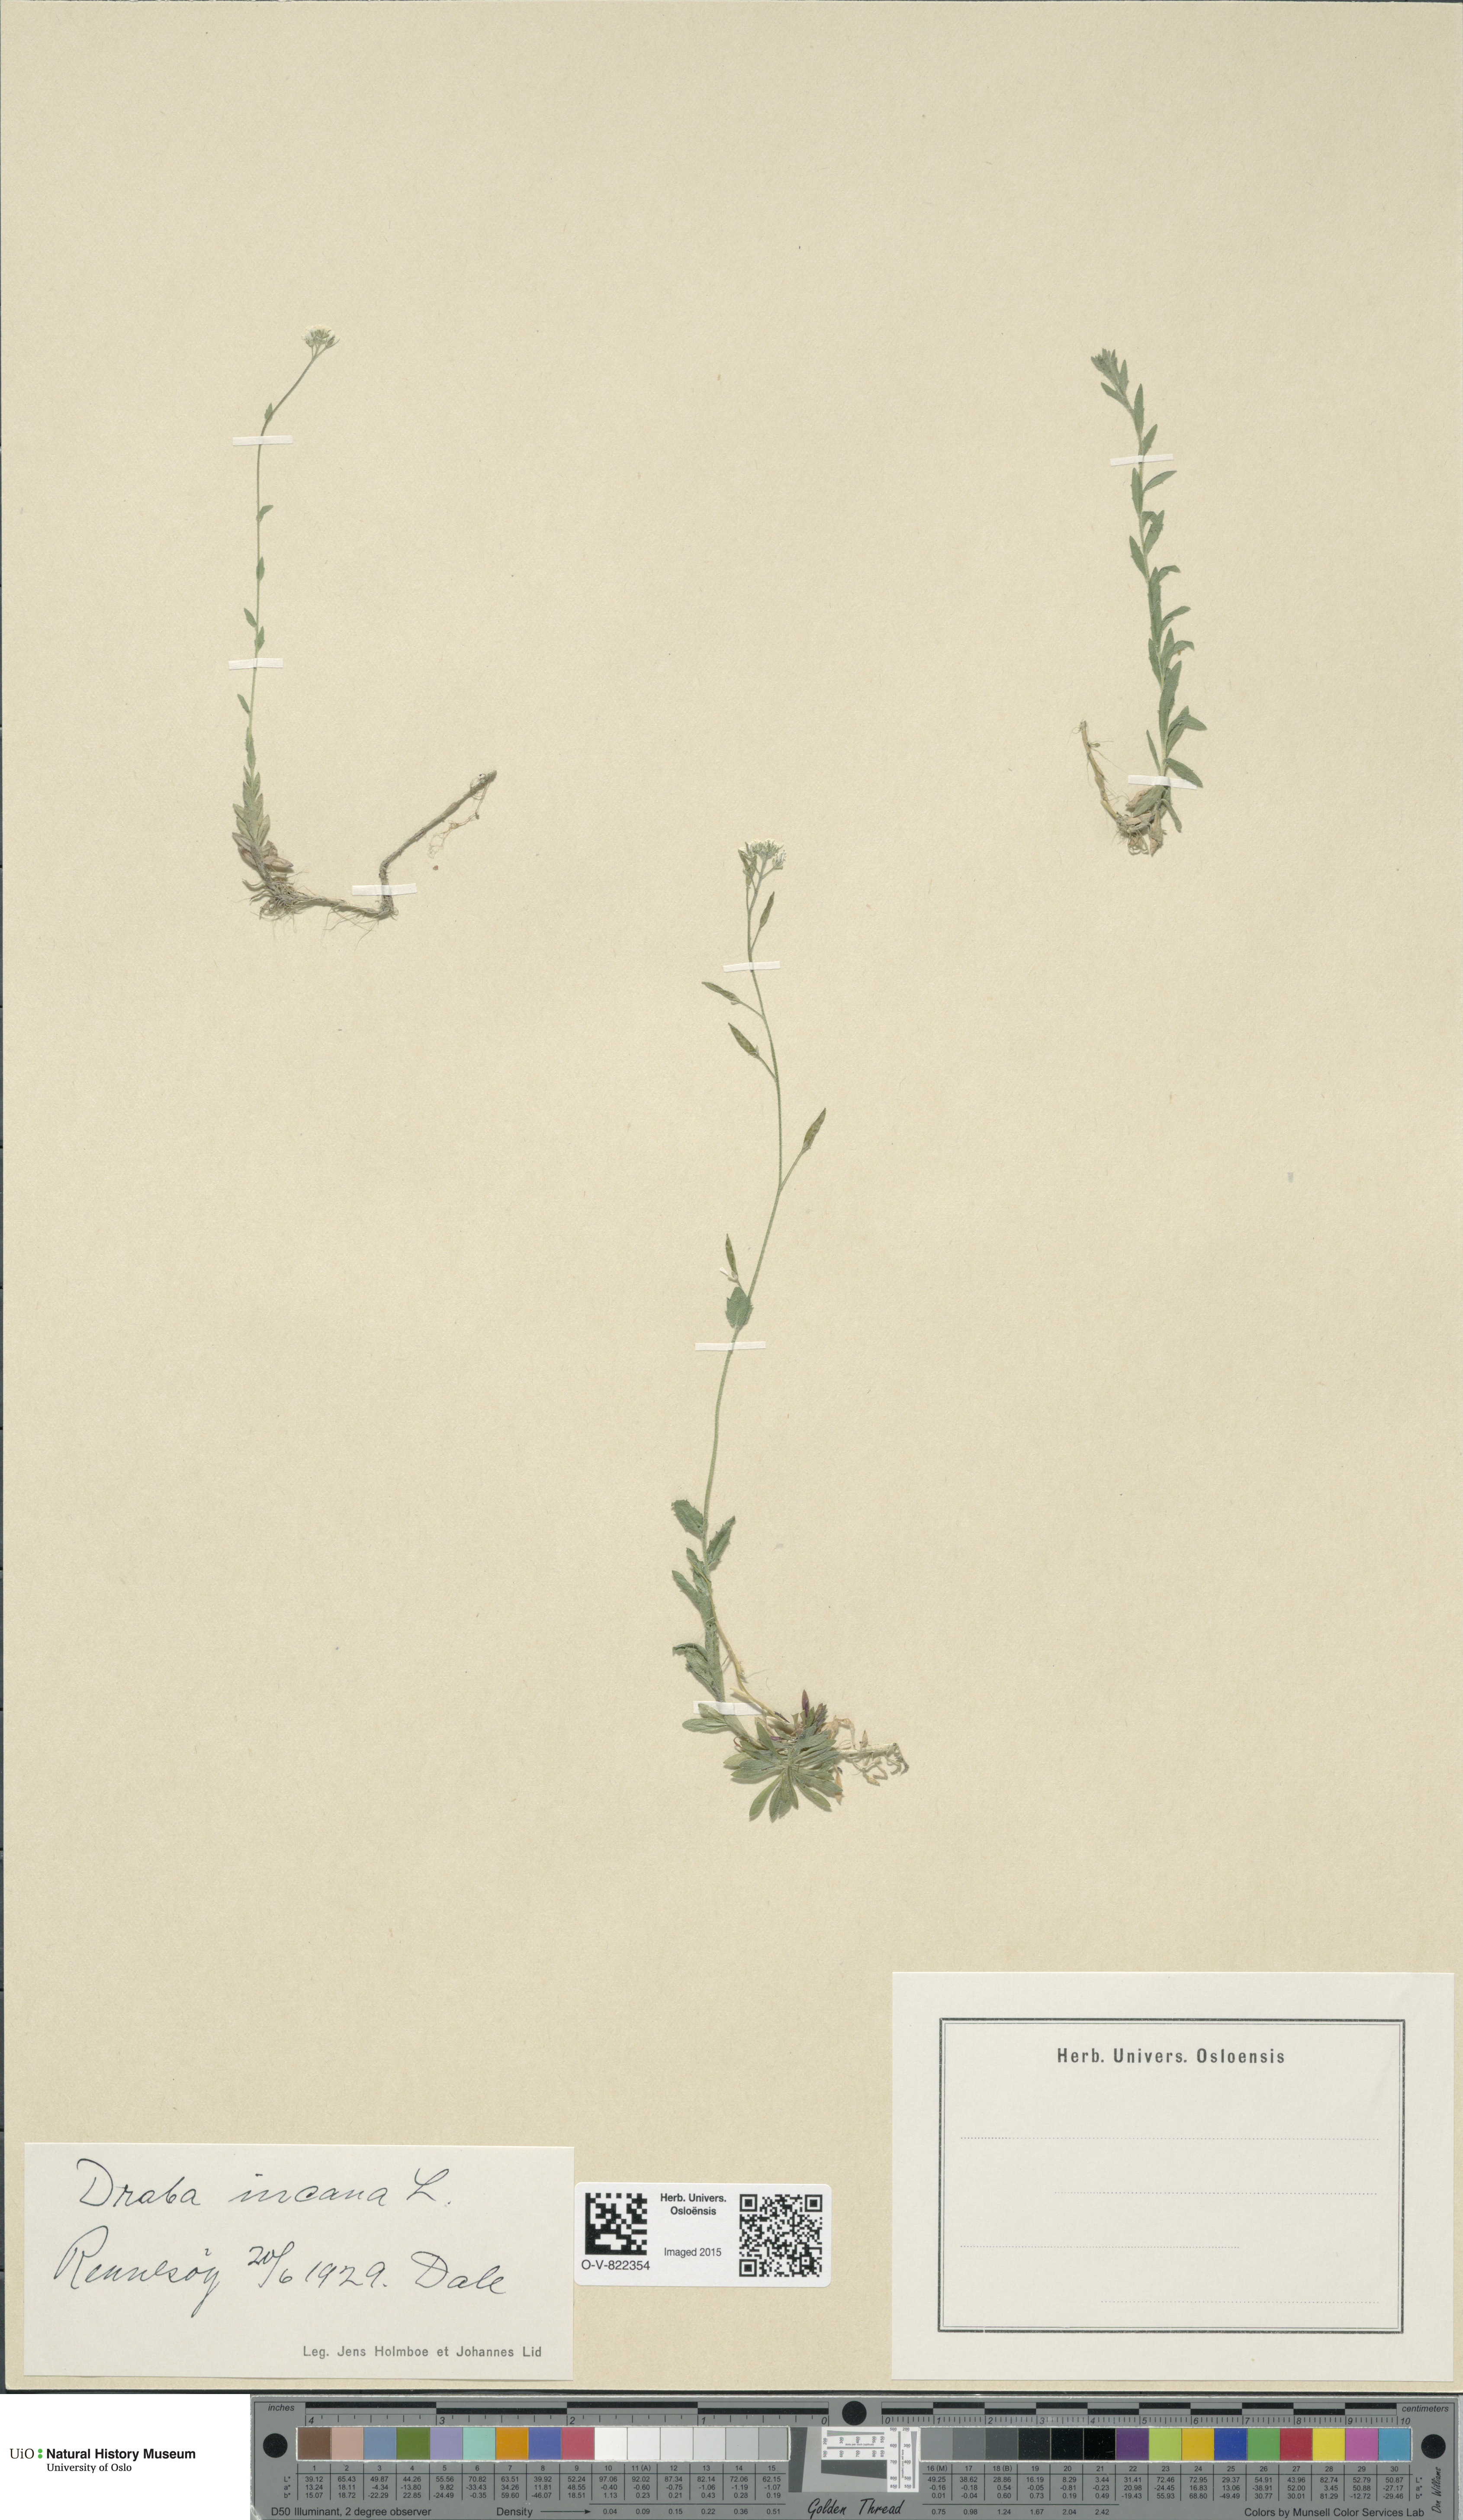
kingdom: Plantae
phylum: Tracheophyta
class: Magnoliopsida
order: Brassicales
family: Brassicaceae
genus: Draba
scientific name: Draba incana
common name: Hoary whitlow-grass
